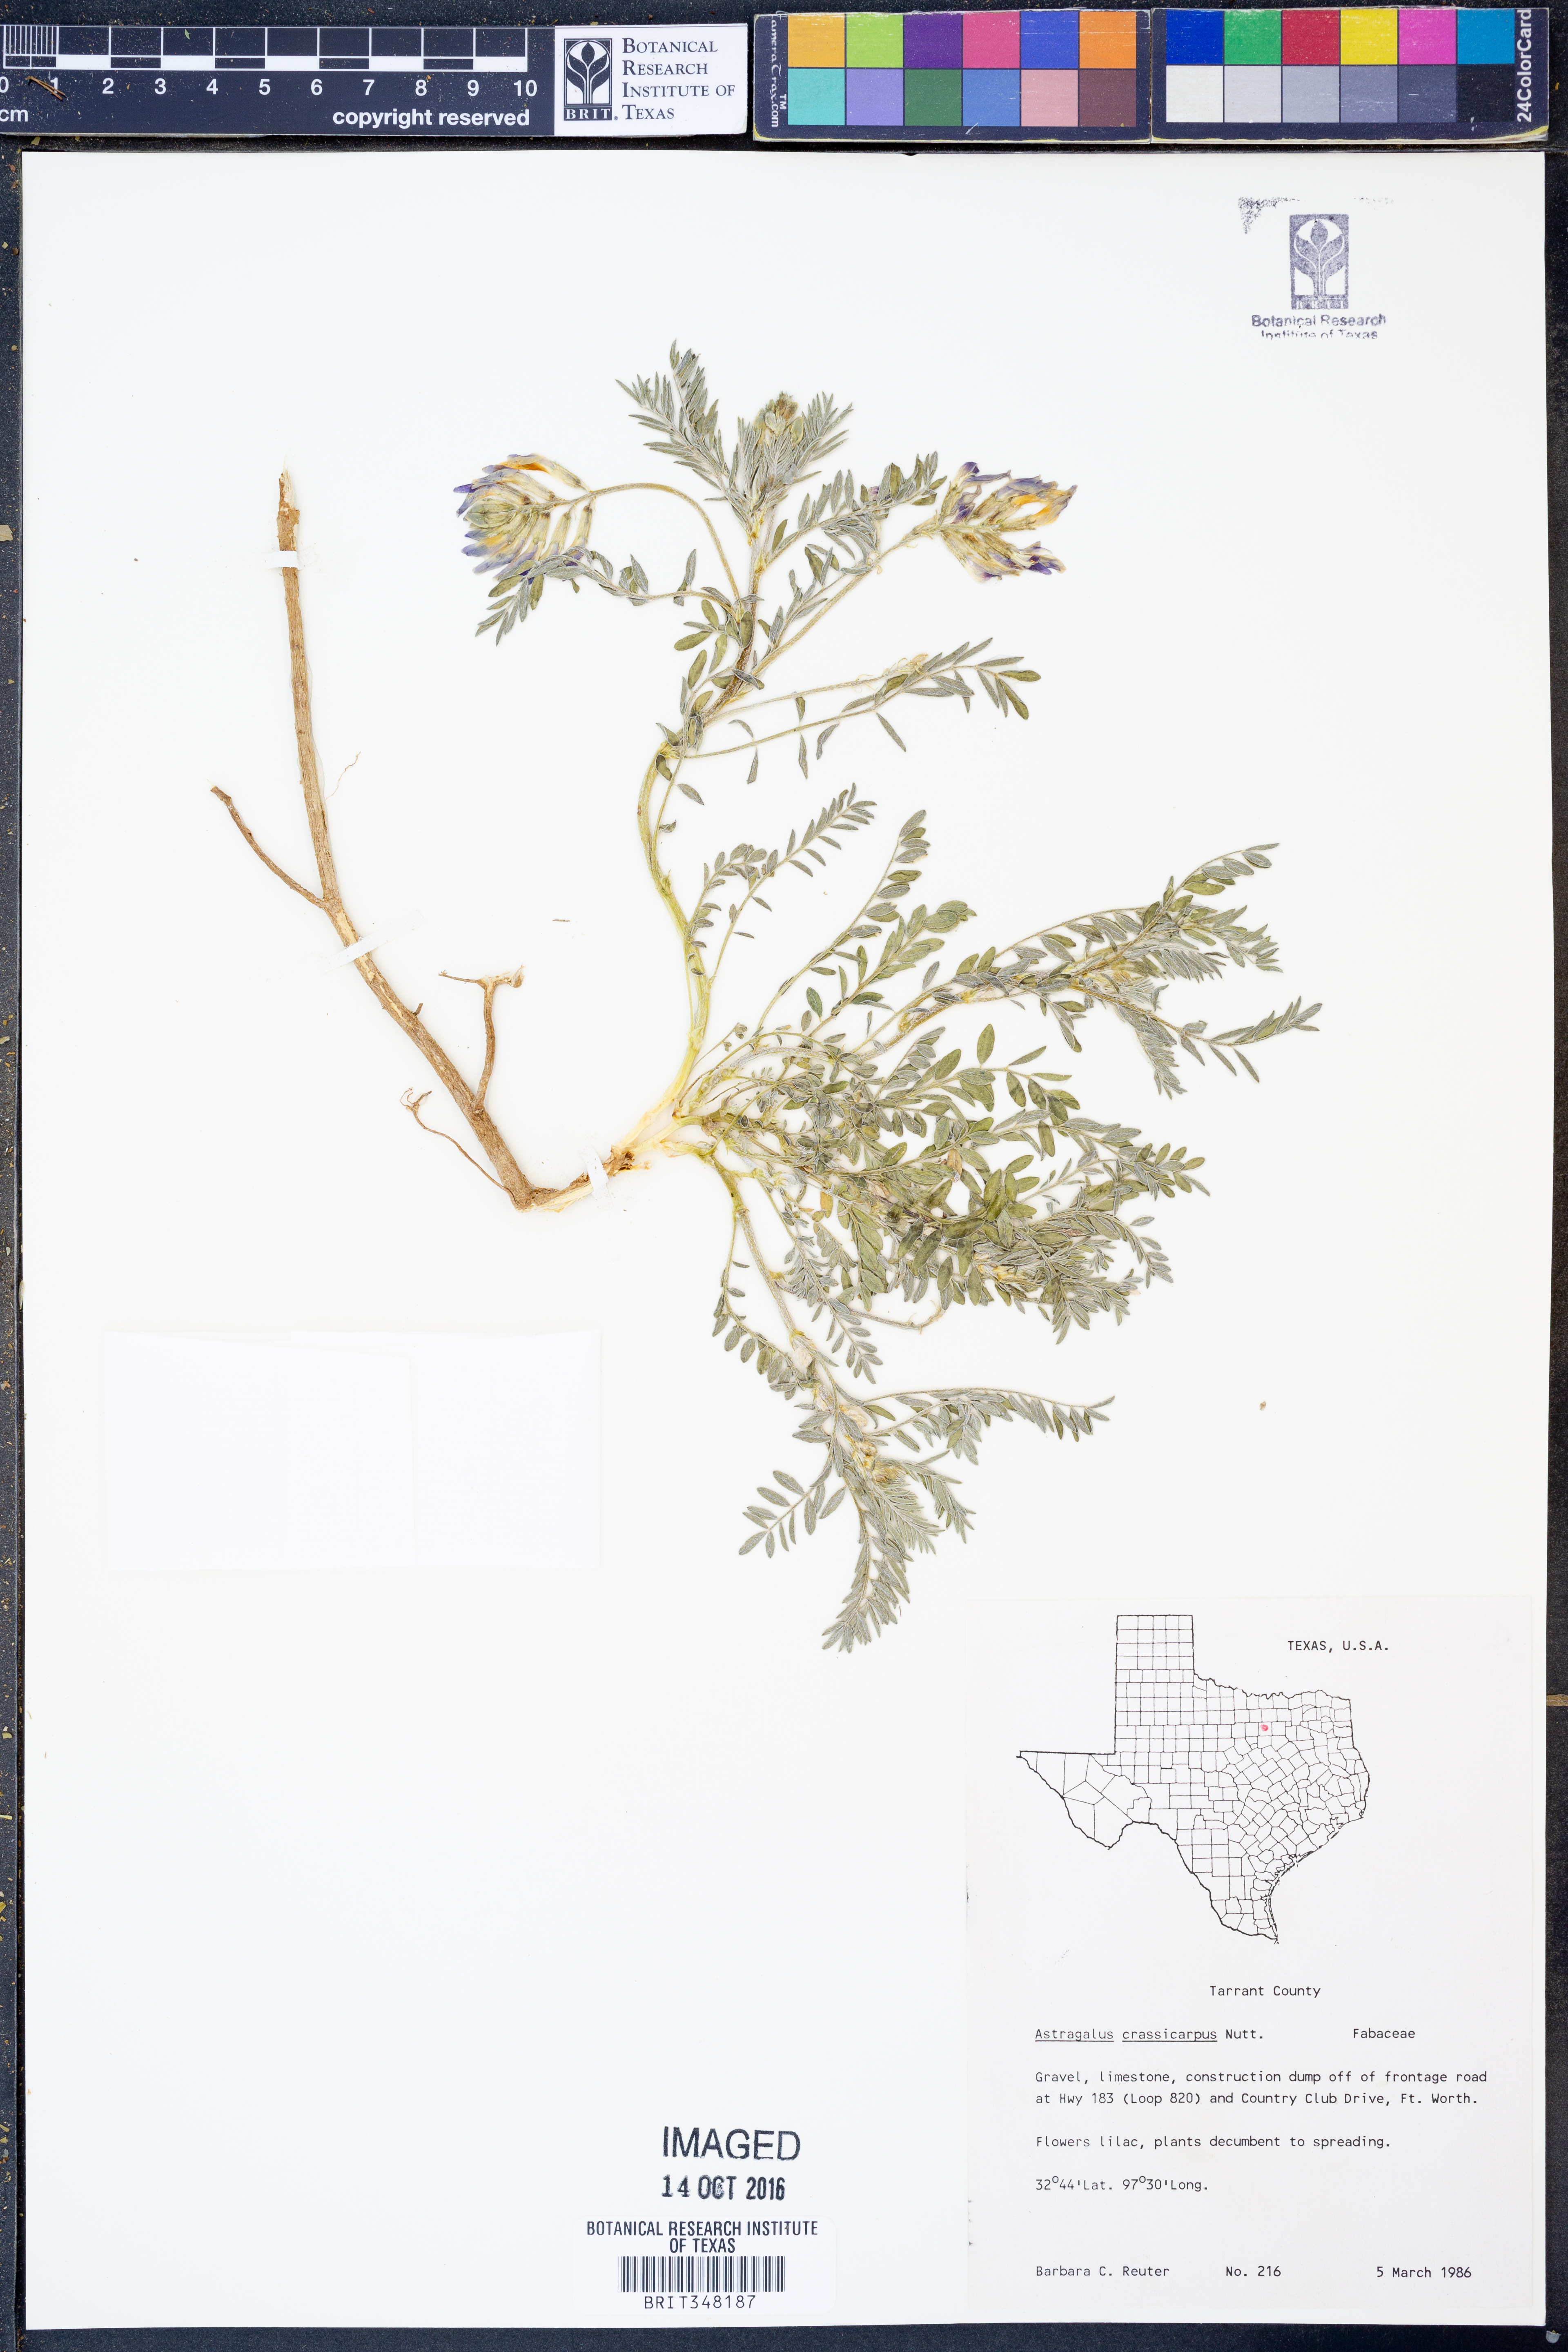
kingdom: Plantae
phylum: Tracheophyta
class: Magnoliopsida
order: Fabales
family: Fabaceae
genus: Astragalus
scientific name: Astragalus crassicarpus
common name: Ground-plum milk-vetch
